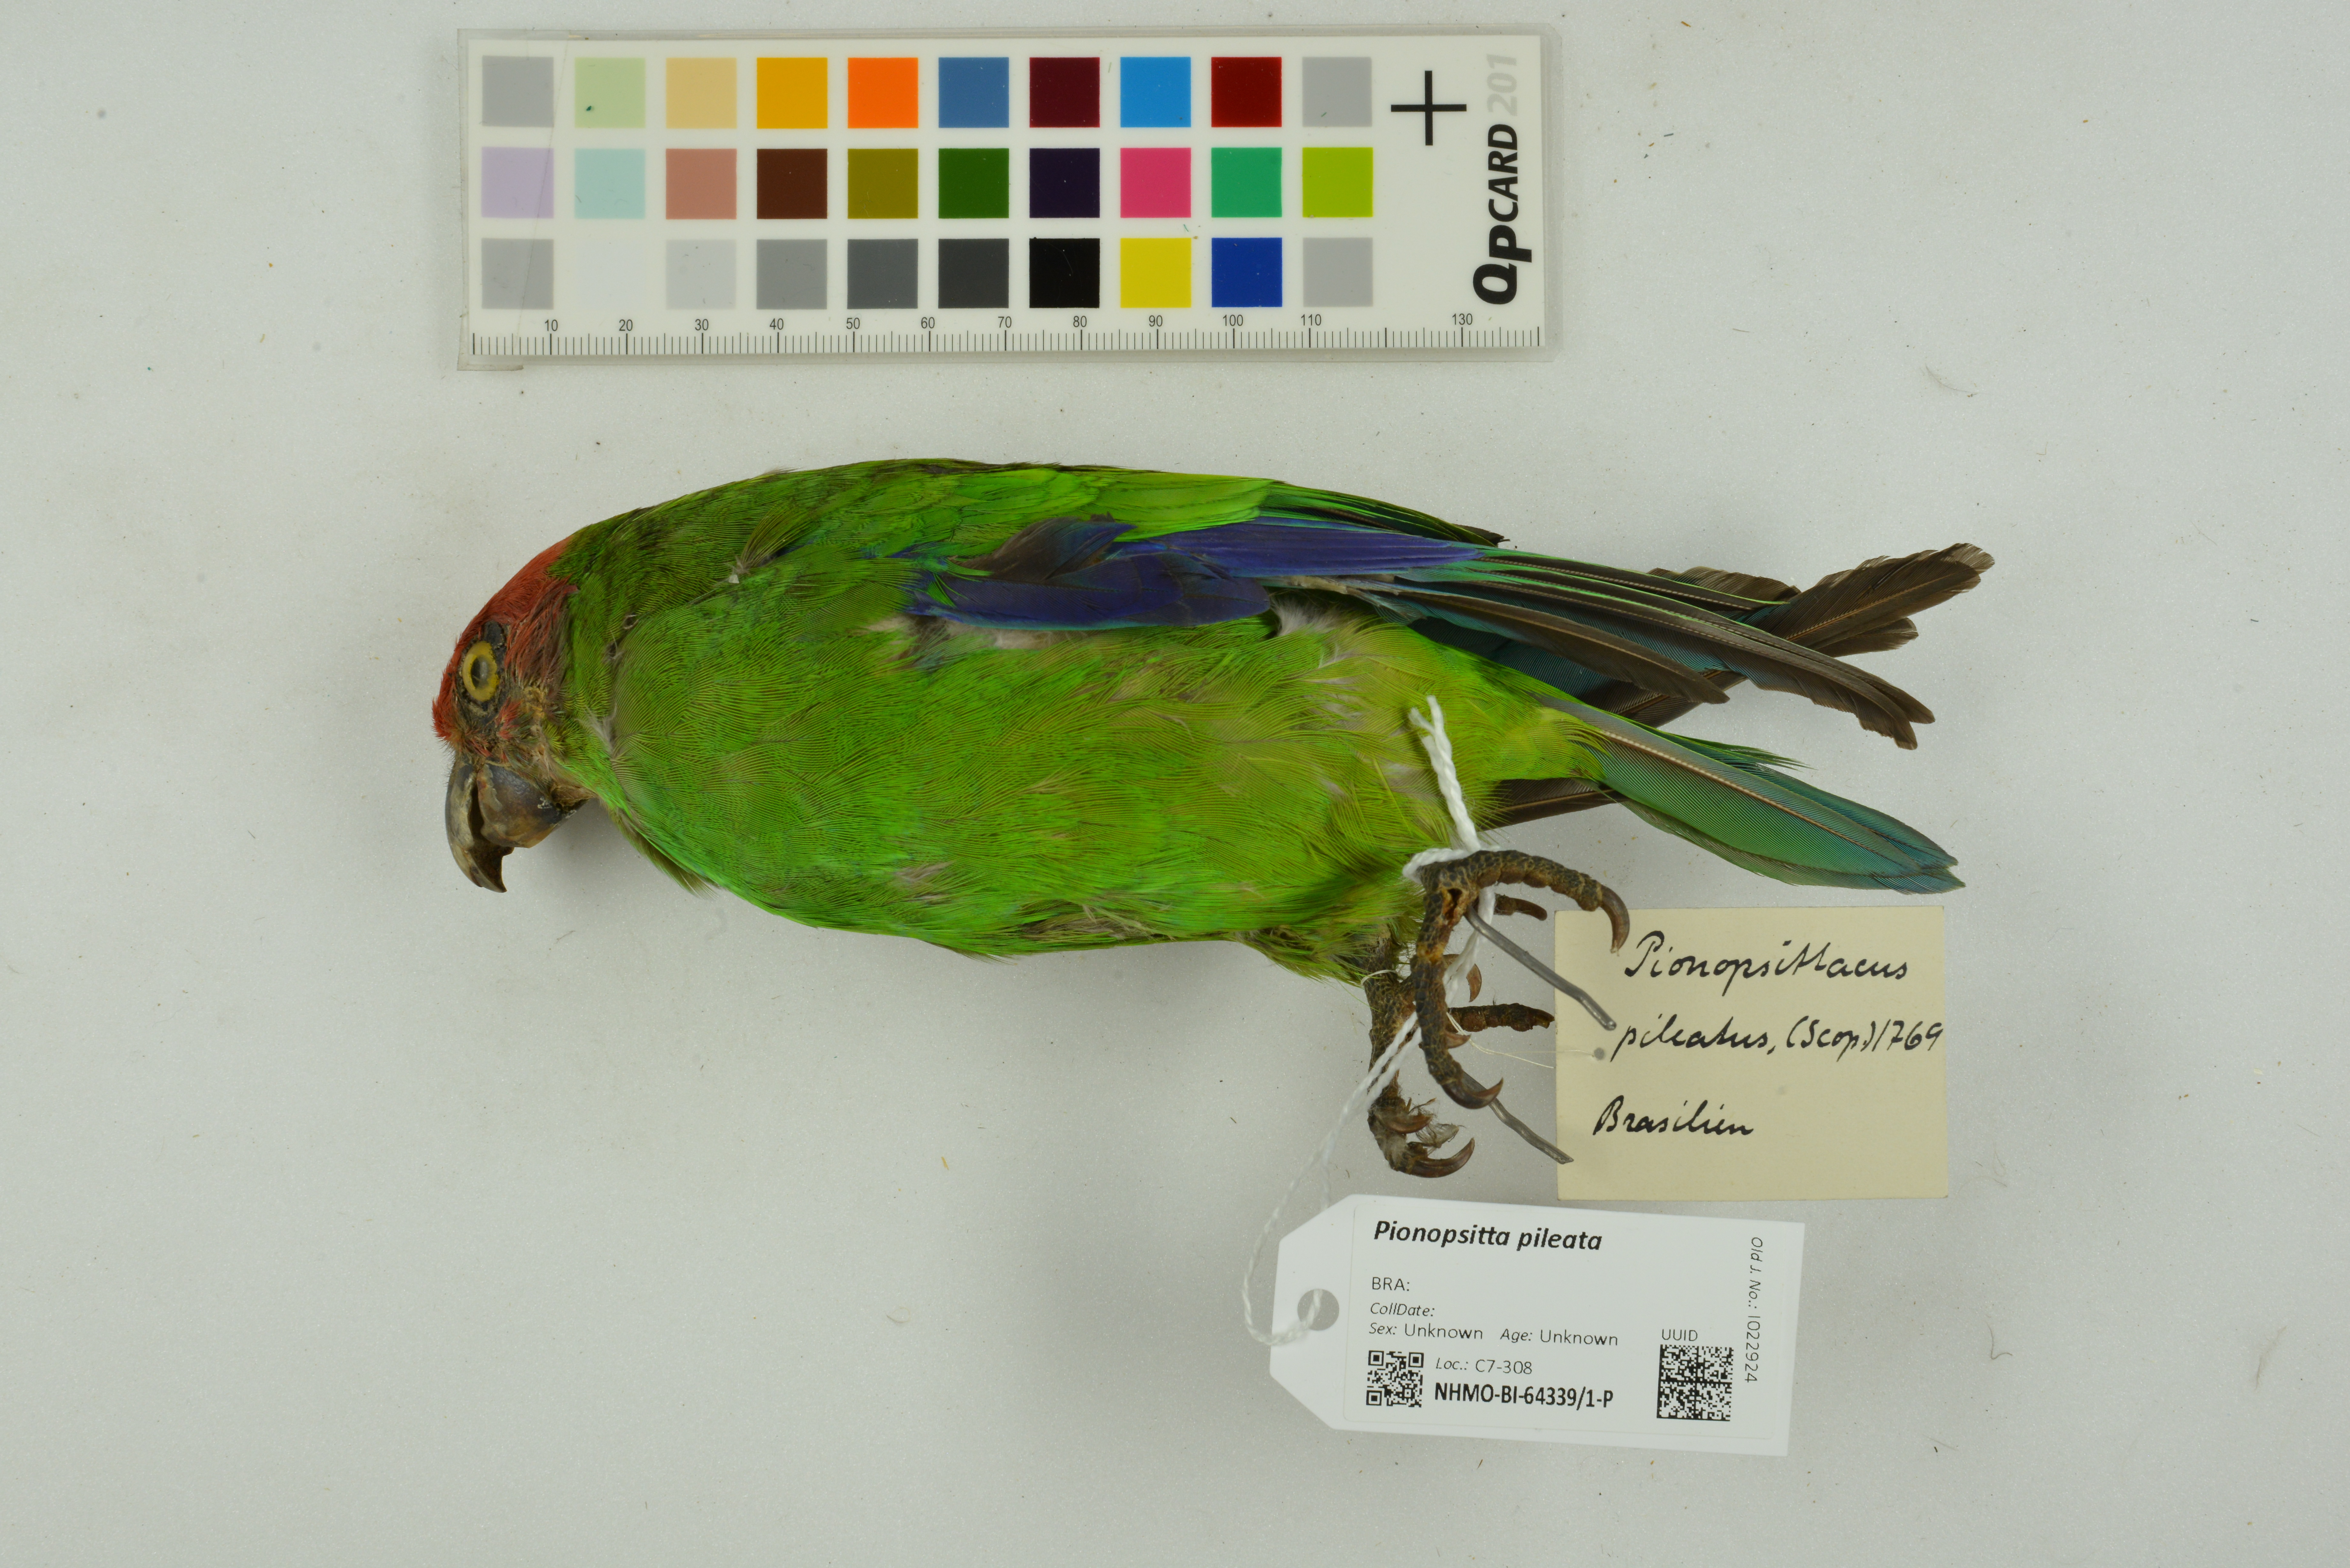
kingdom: Animalia
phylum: Chordata
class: Aves
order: Psittaciformes
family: Psittacidae
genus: Pionopsitta
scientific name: Pionopsitta pileata
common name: Pileated parrot
